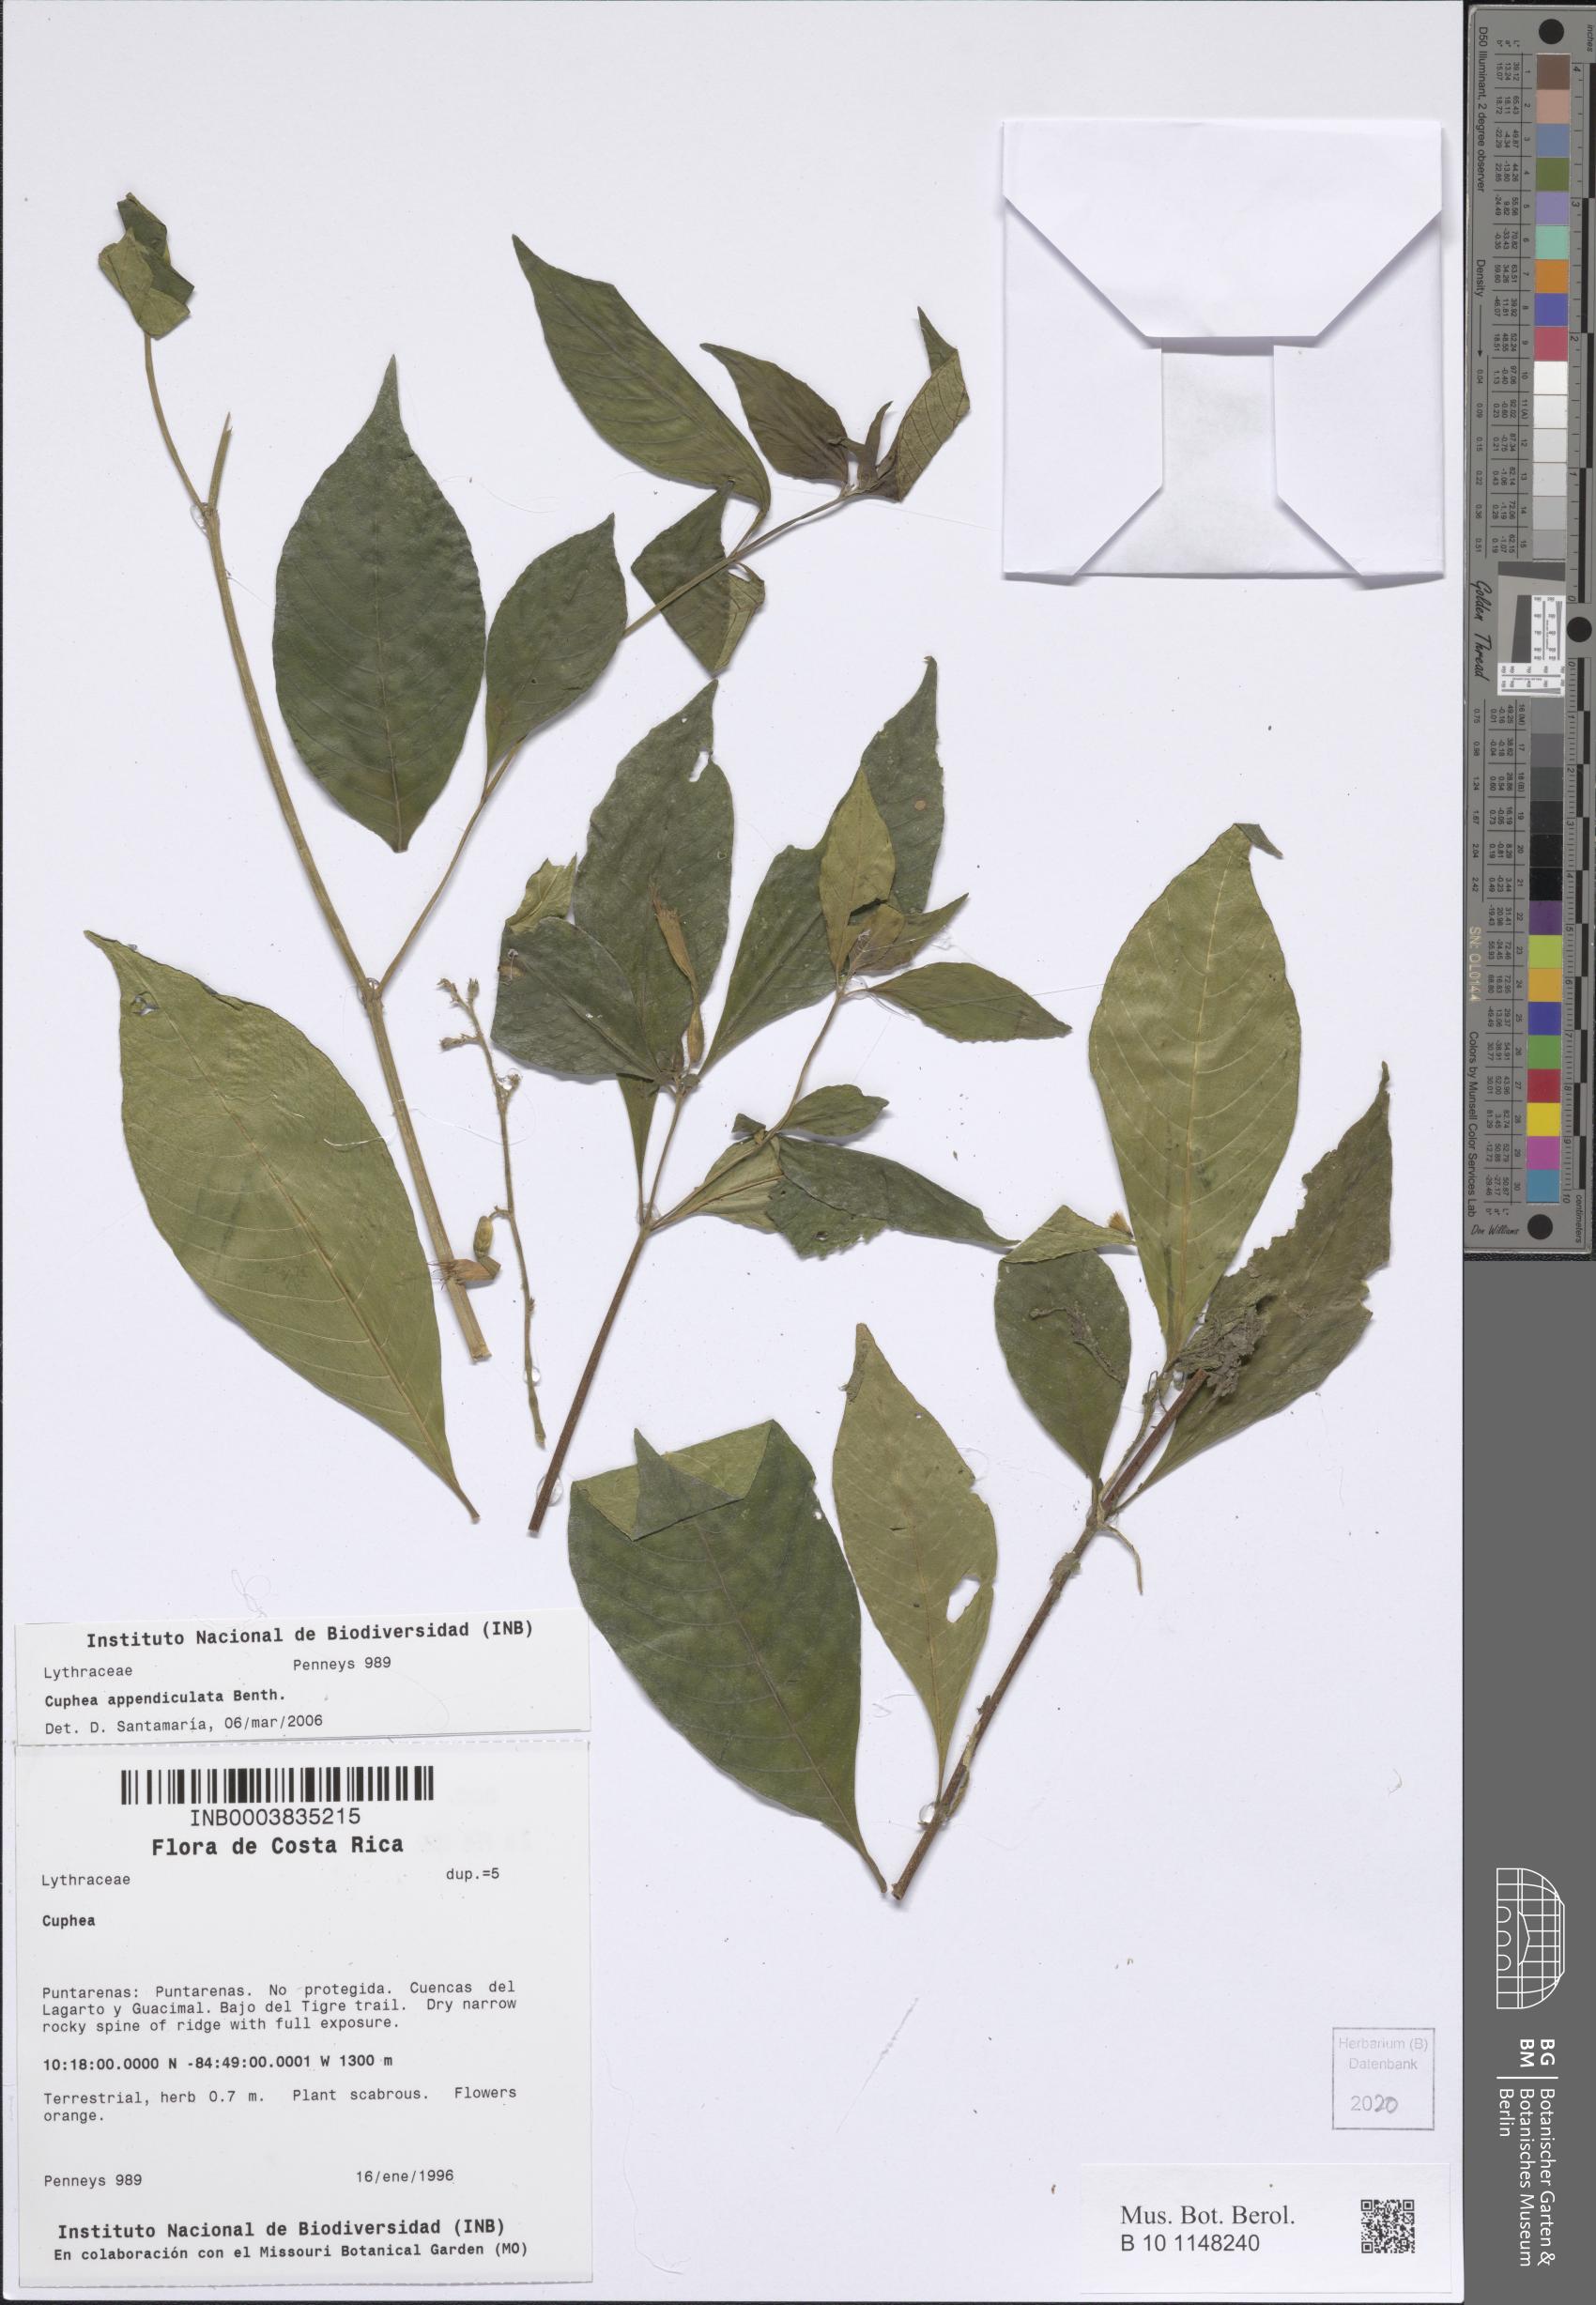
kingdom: Plantae
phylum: Tracheophyta
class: Magnoliopsida
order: Myrtales
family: Lythraceae
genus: Cuphea
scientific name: Cuphea appendiculata
